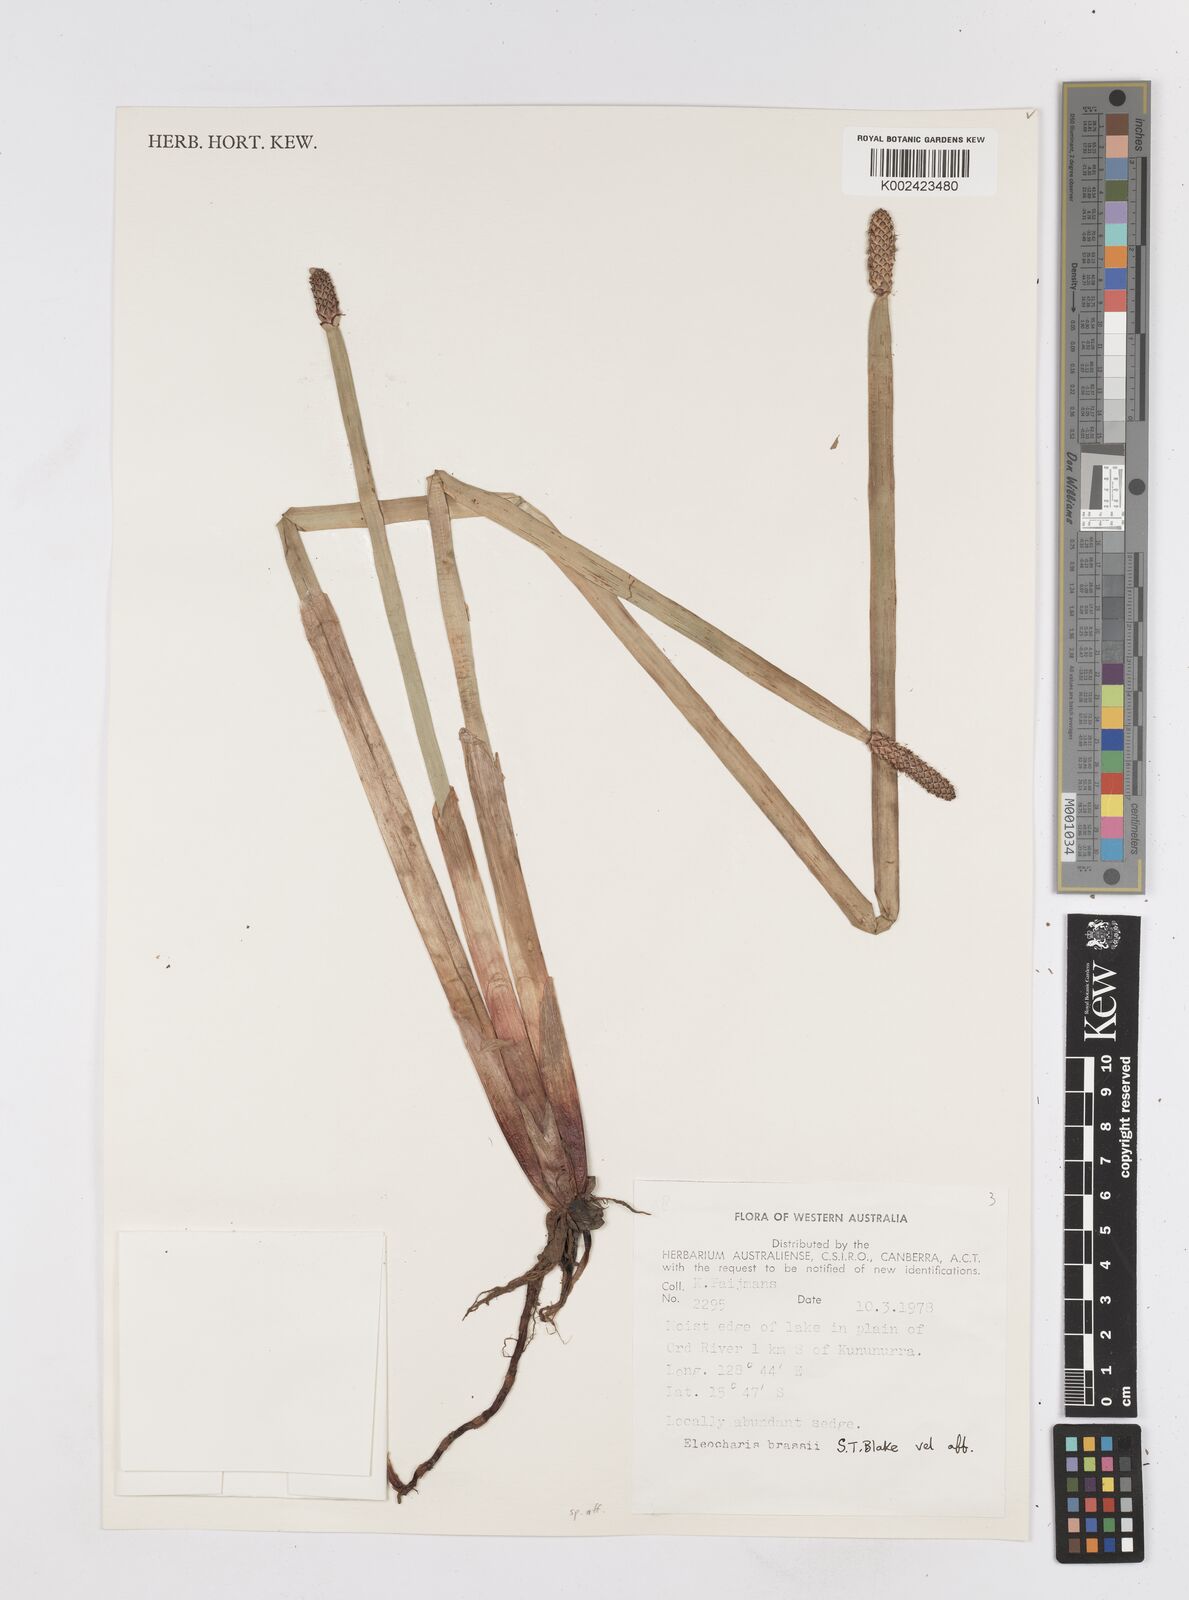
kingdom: Plantae
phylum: Tracheophyta
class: Liliopsida
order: Poales
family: Cyperaceae
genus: Eleocharis
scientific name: Eleocharis brassii
